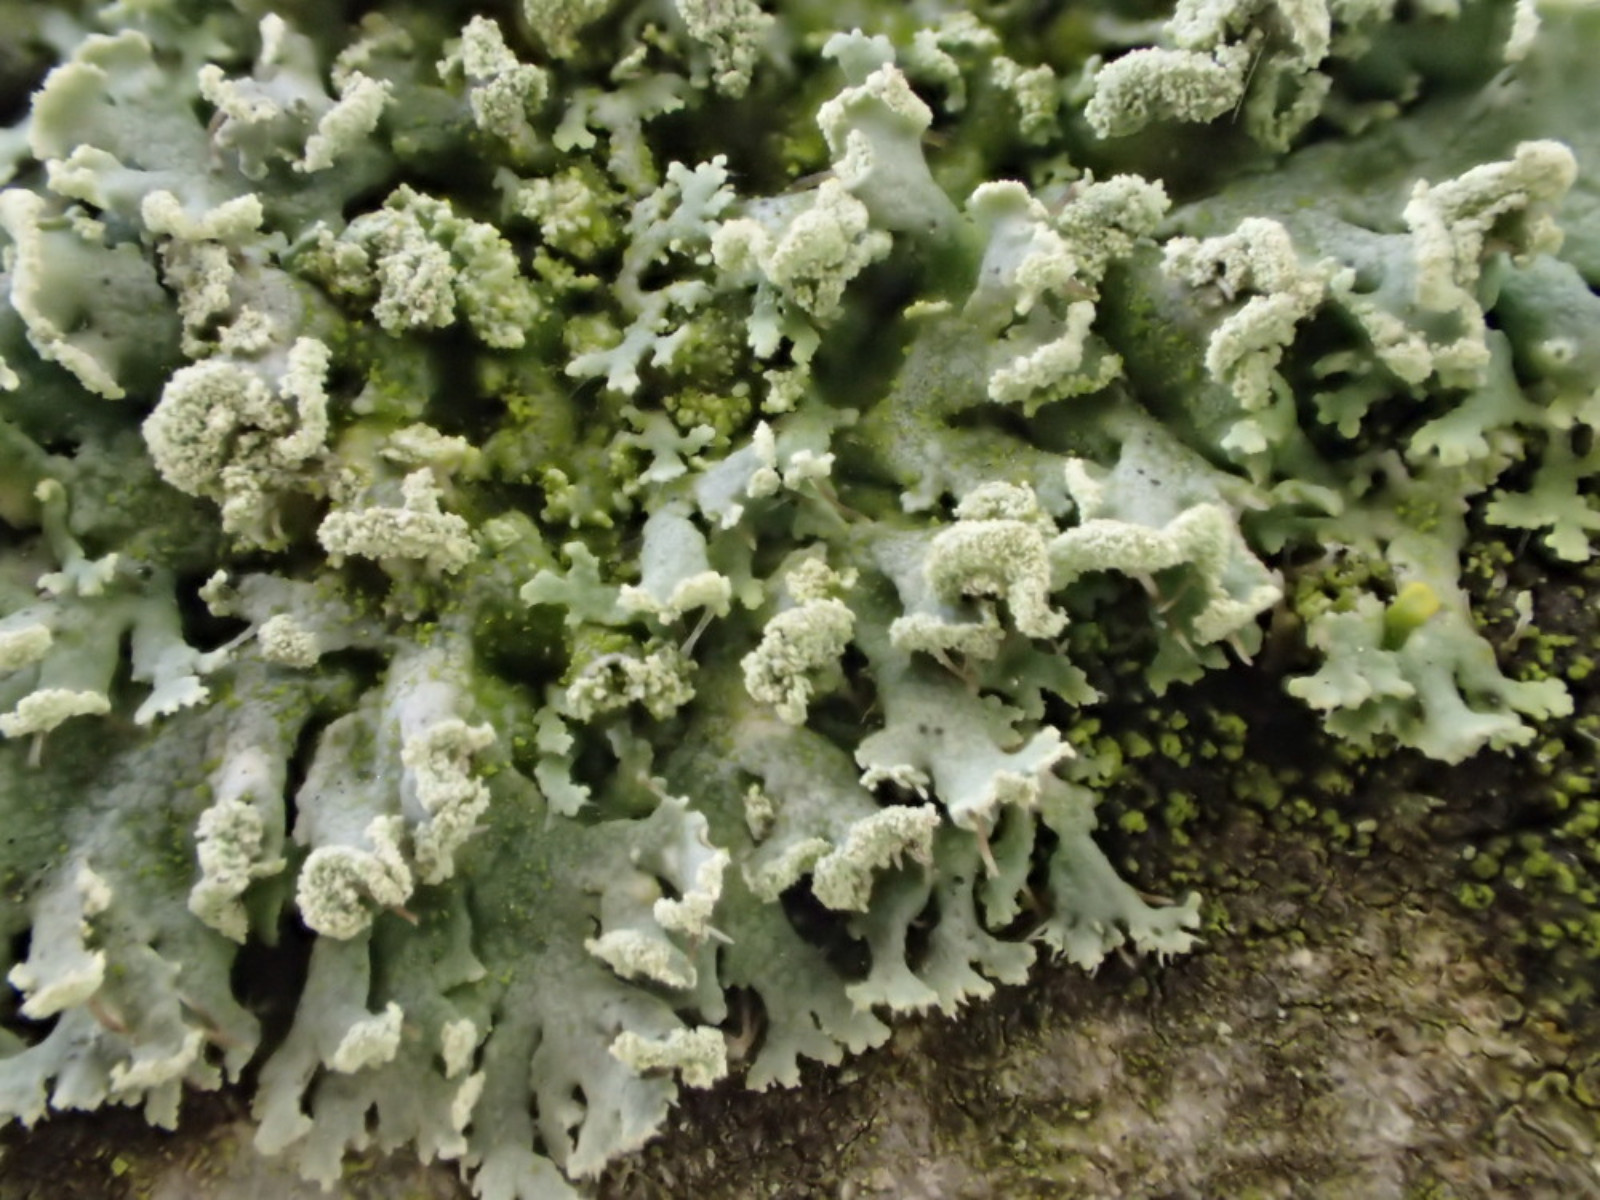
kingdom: Fungi
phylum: Ascomycota
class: Lecanoromycetes
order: Caliciales
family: Physciaceae
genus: Physcia
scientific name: Physcia tenella
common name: spæd rosetlav
